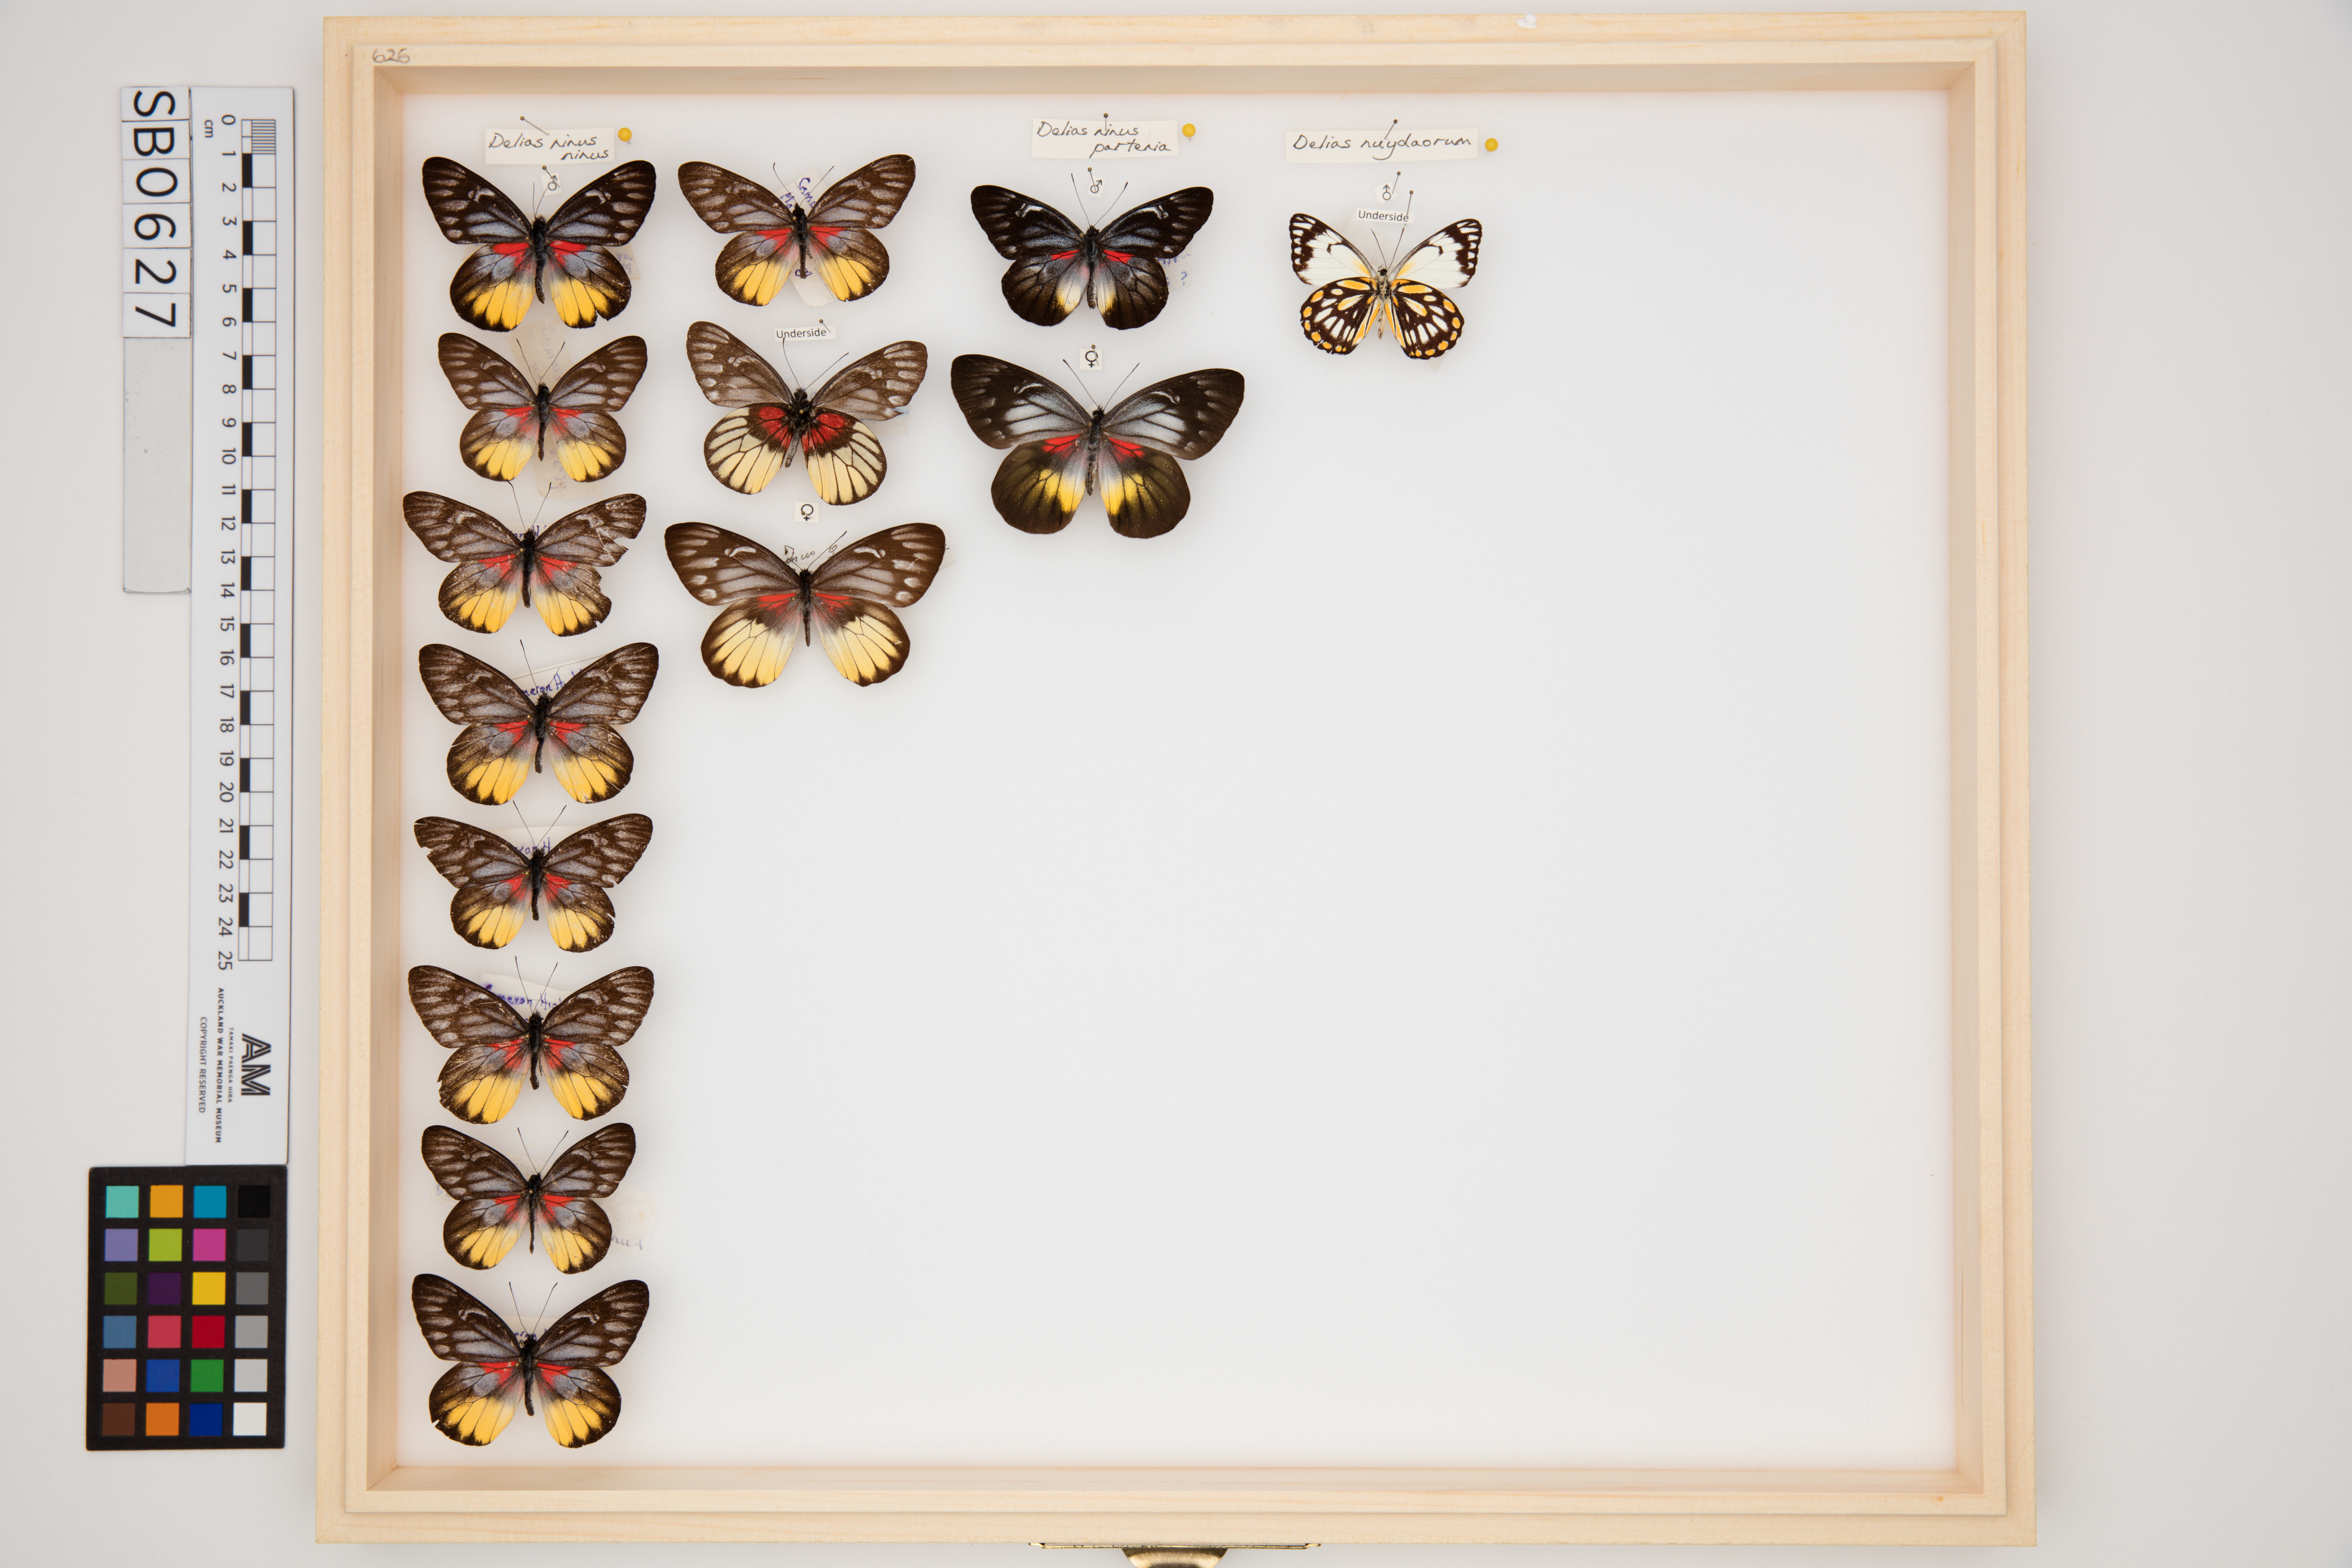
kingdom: Animalia
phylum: Arthropoda
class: Insecta
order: Lepidoptera
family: Pieridae
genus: Delias
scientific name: Delias ninus
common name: Malayan jezebel
